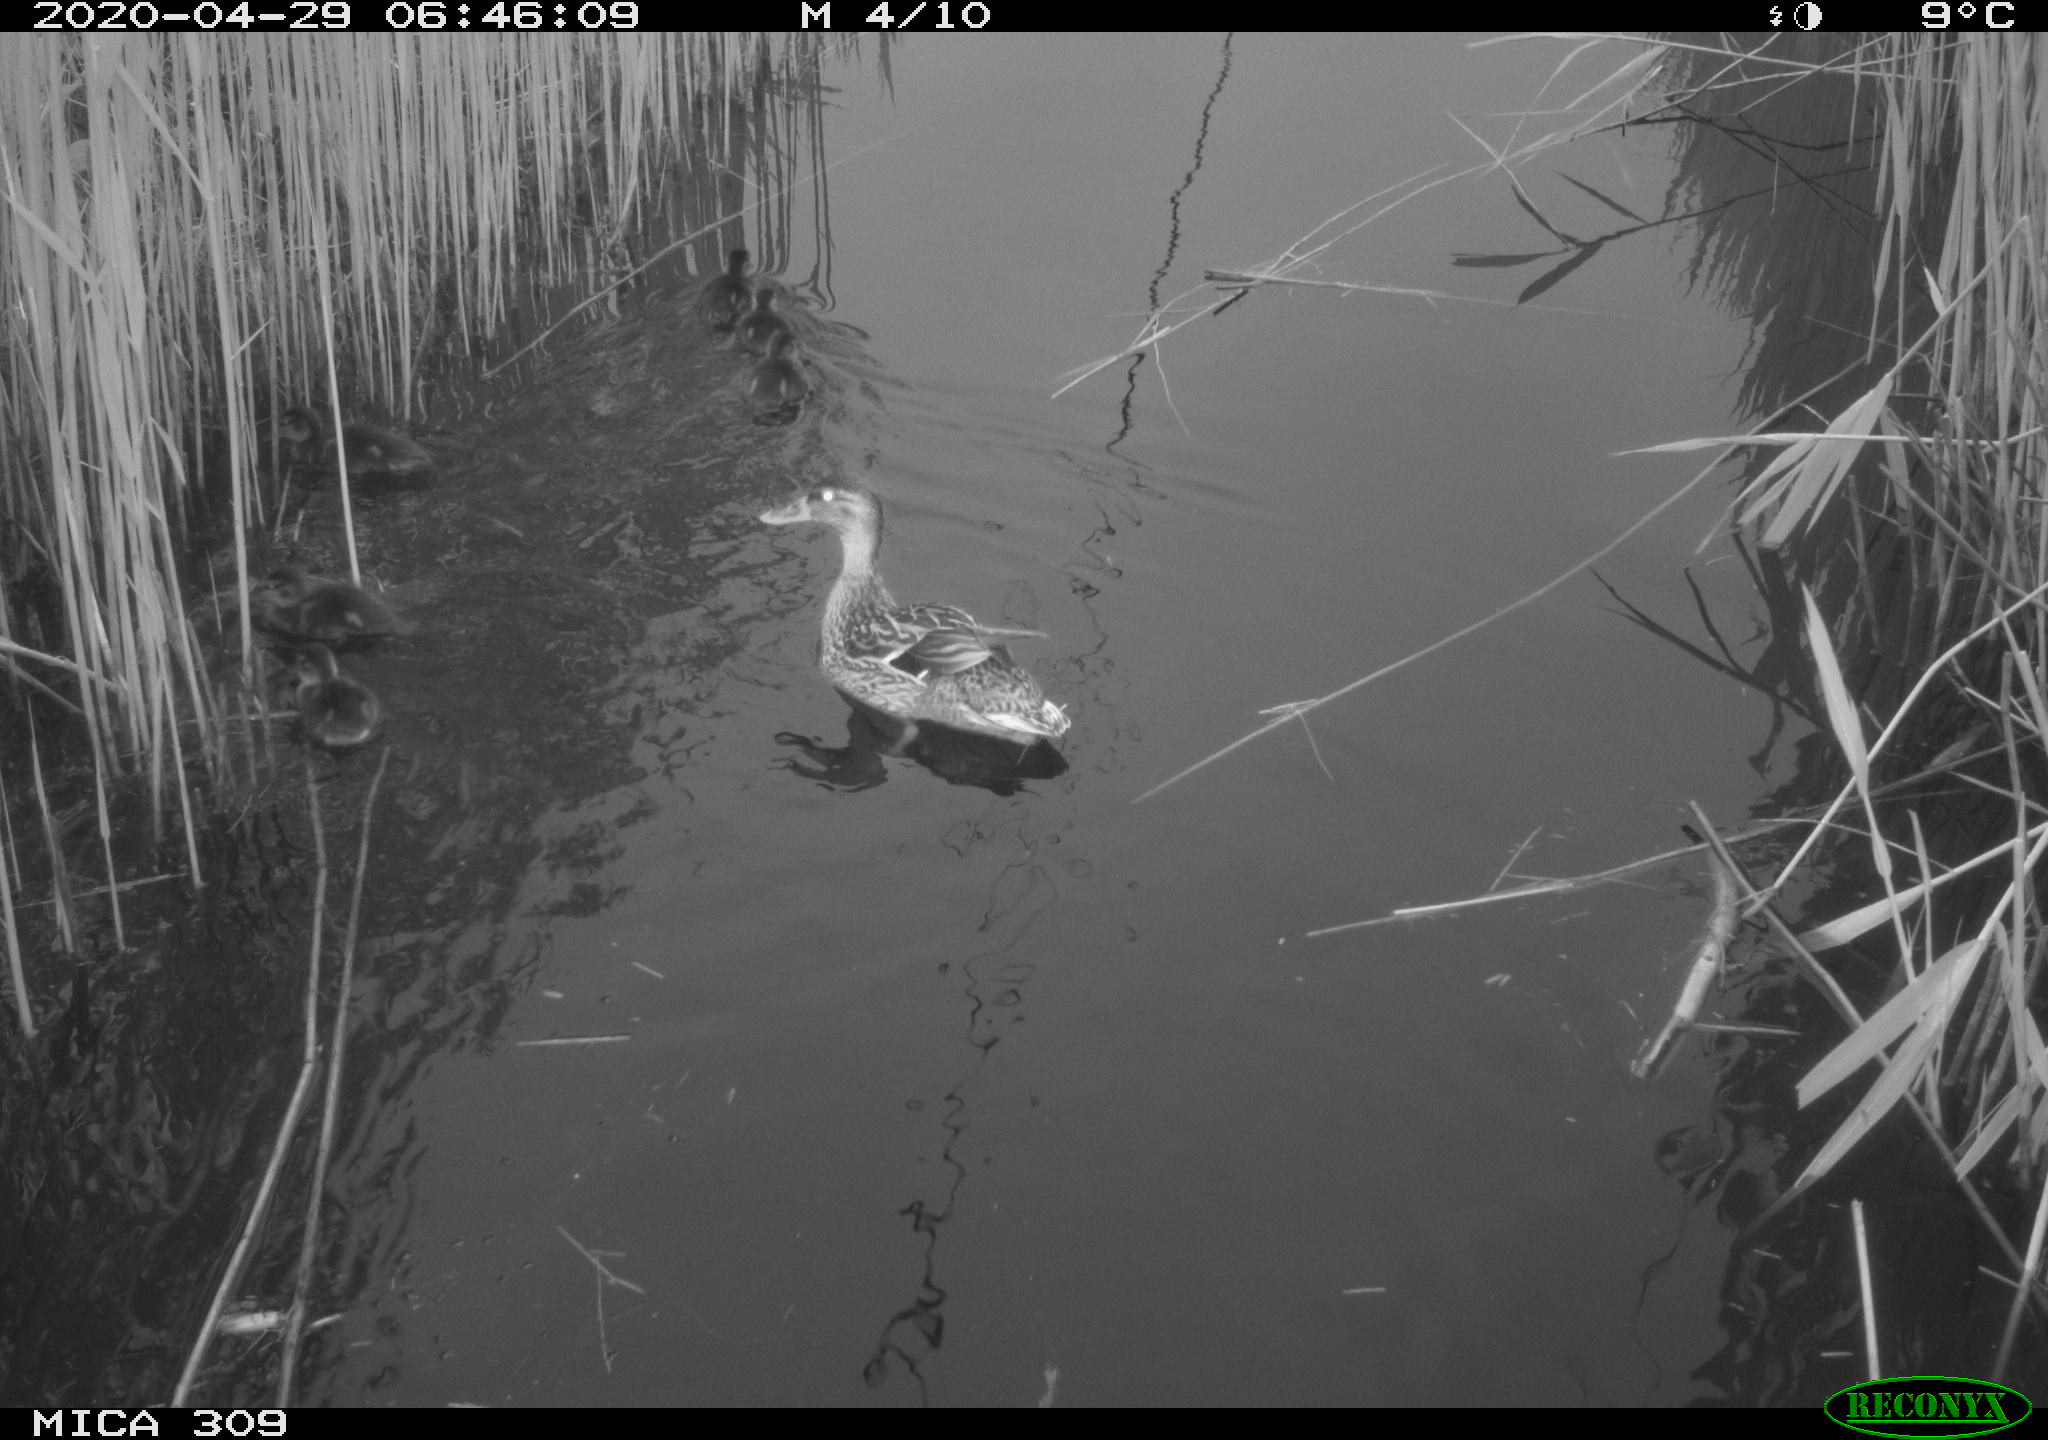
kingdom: Animalia
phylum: Chordata
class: Aves
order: Anseriformes
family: Anatidae
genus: Anas
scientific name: Anas platyrhynchos
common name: Mallard
